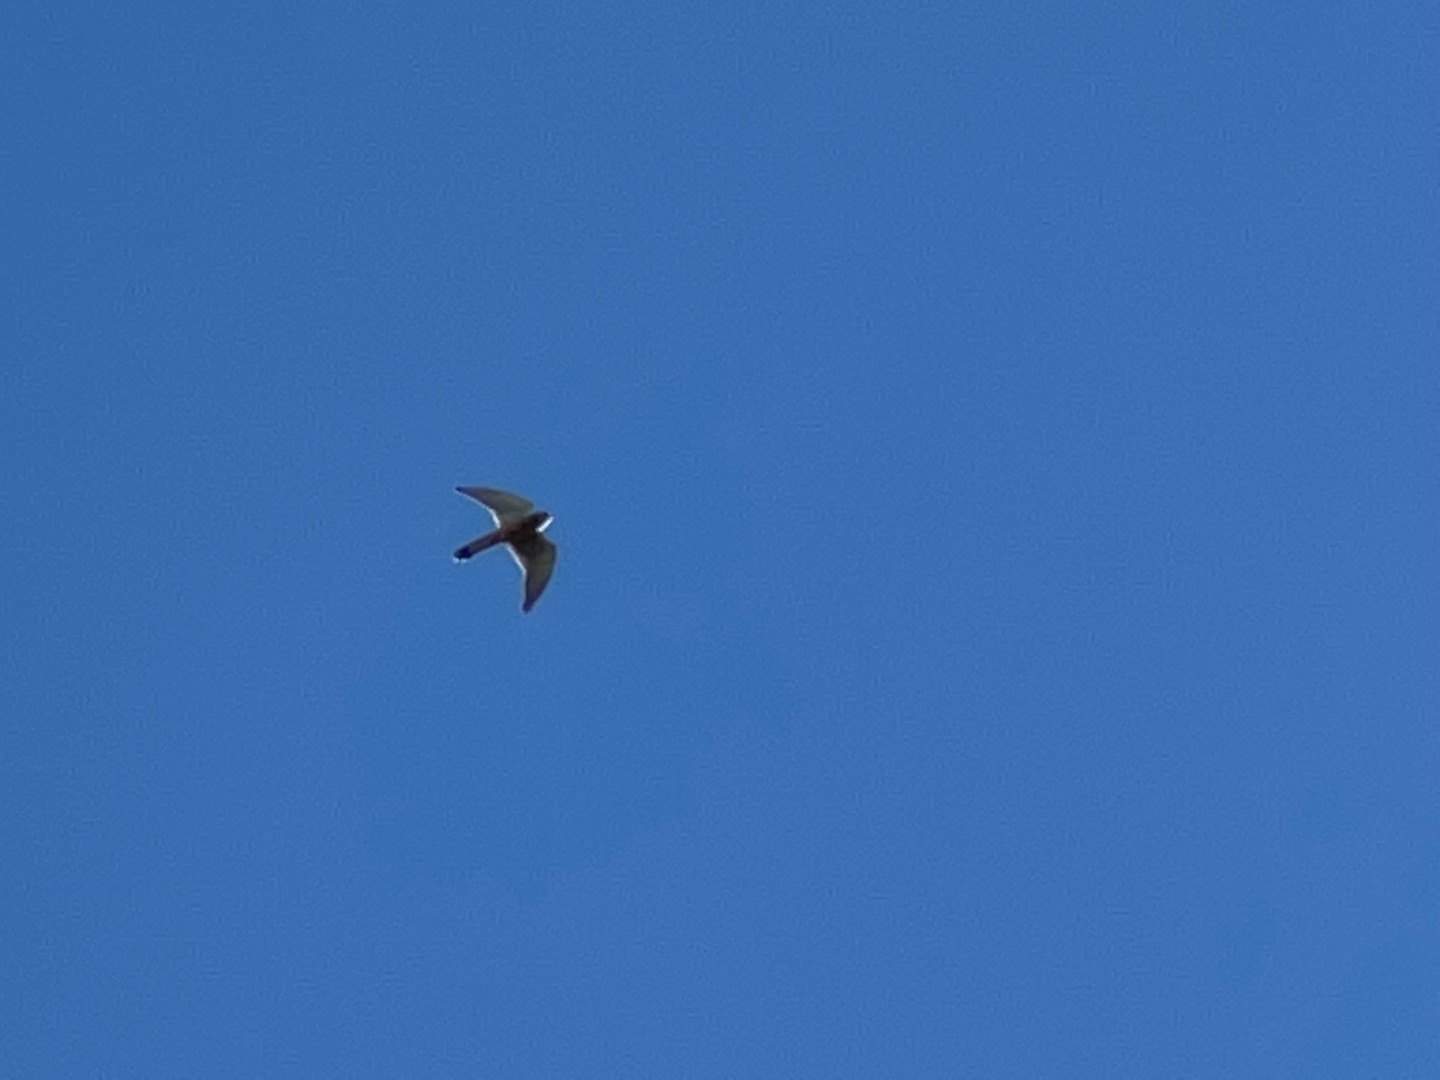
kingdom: Animalia
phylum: Chordata
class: Aves
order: Falconiformes
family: Falconidae
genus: Falco
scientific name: Falco tinnunculus
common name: Tårnfalk
